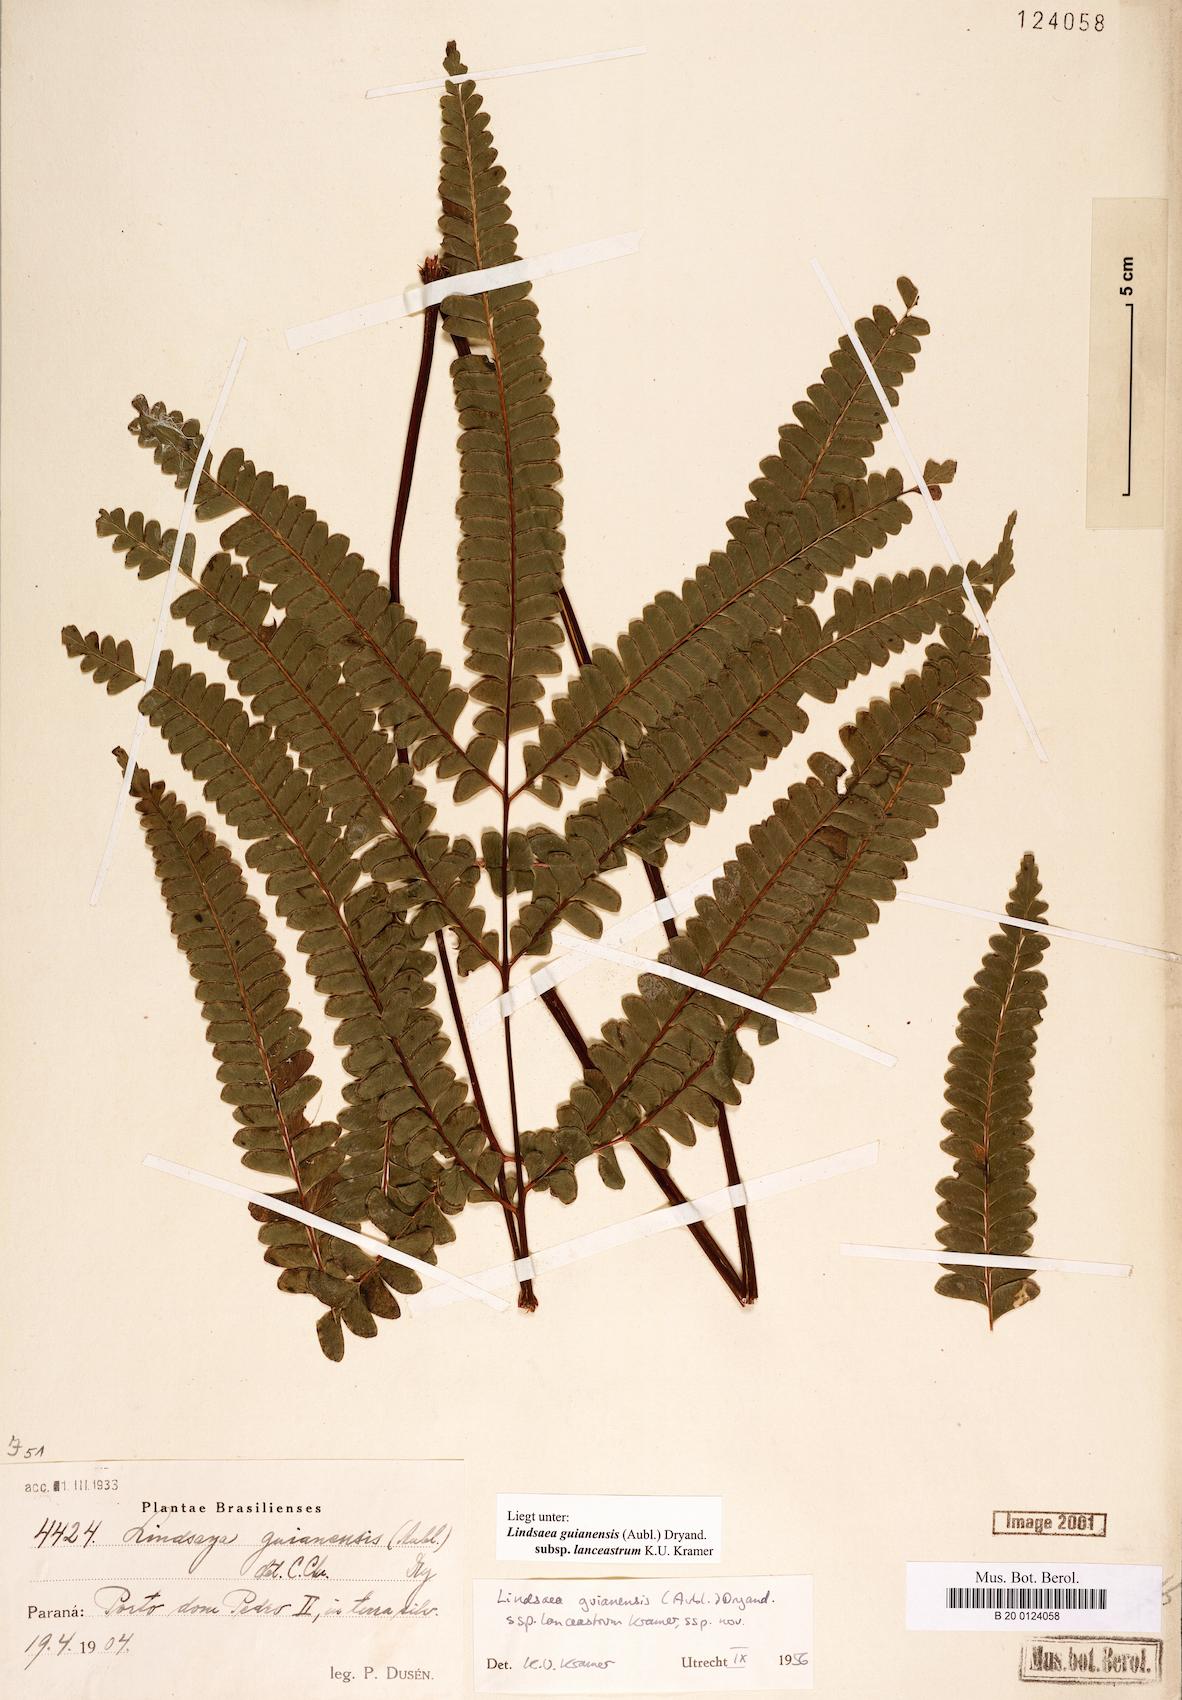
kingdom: Plantae
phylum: Tracheophyta
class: Polypodiopsida
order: Polypodiales
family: Lindsaeaceae
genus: Lindsaea
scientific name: Lindsaea guianensis
